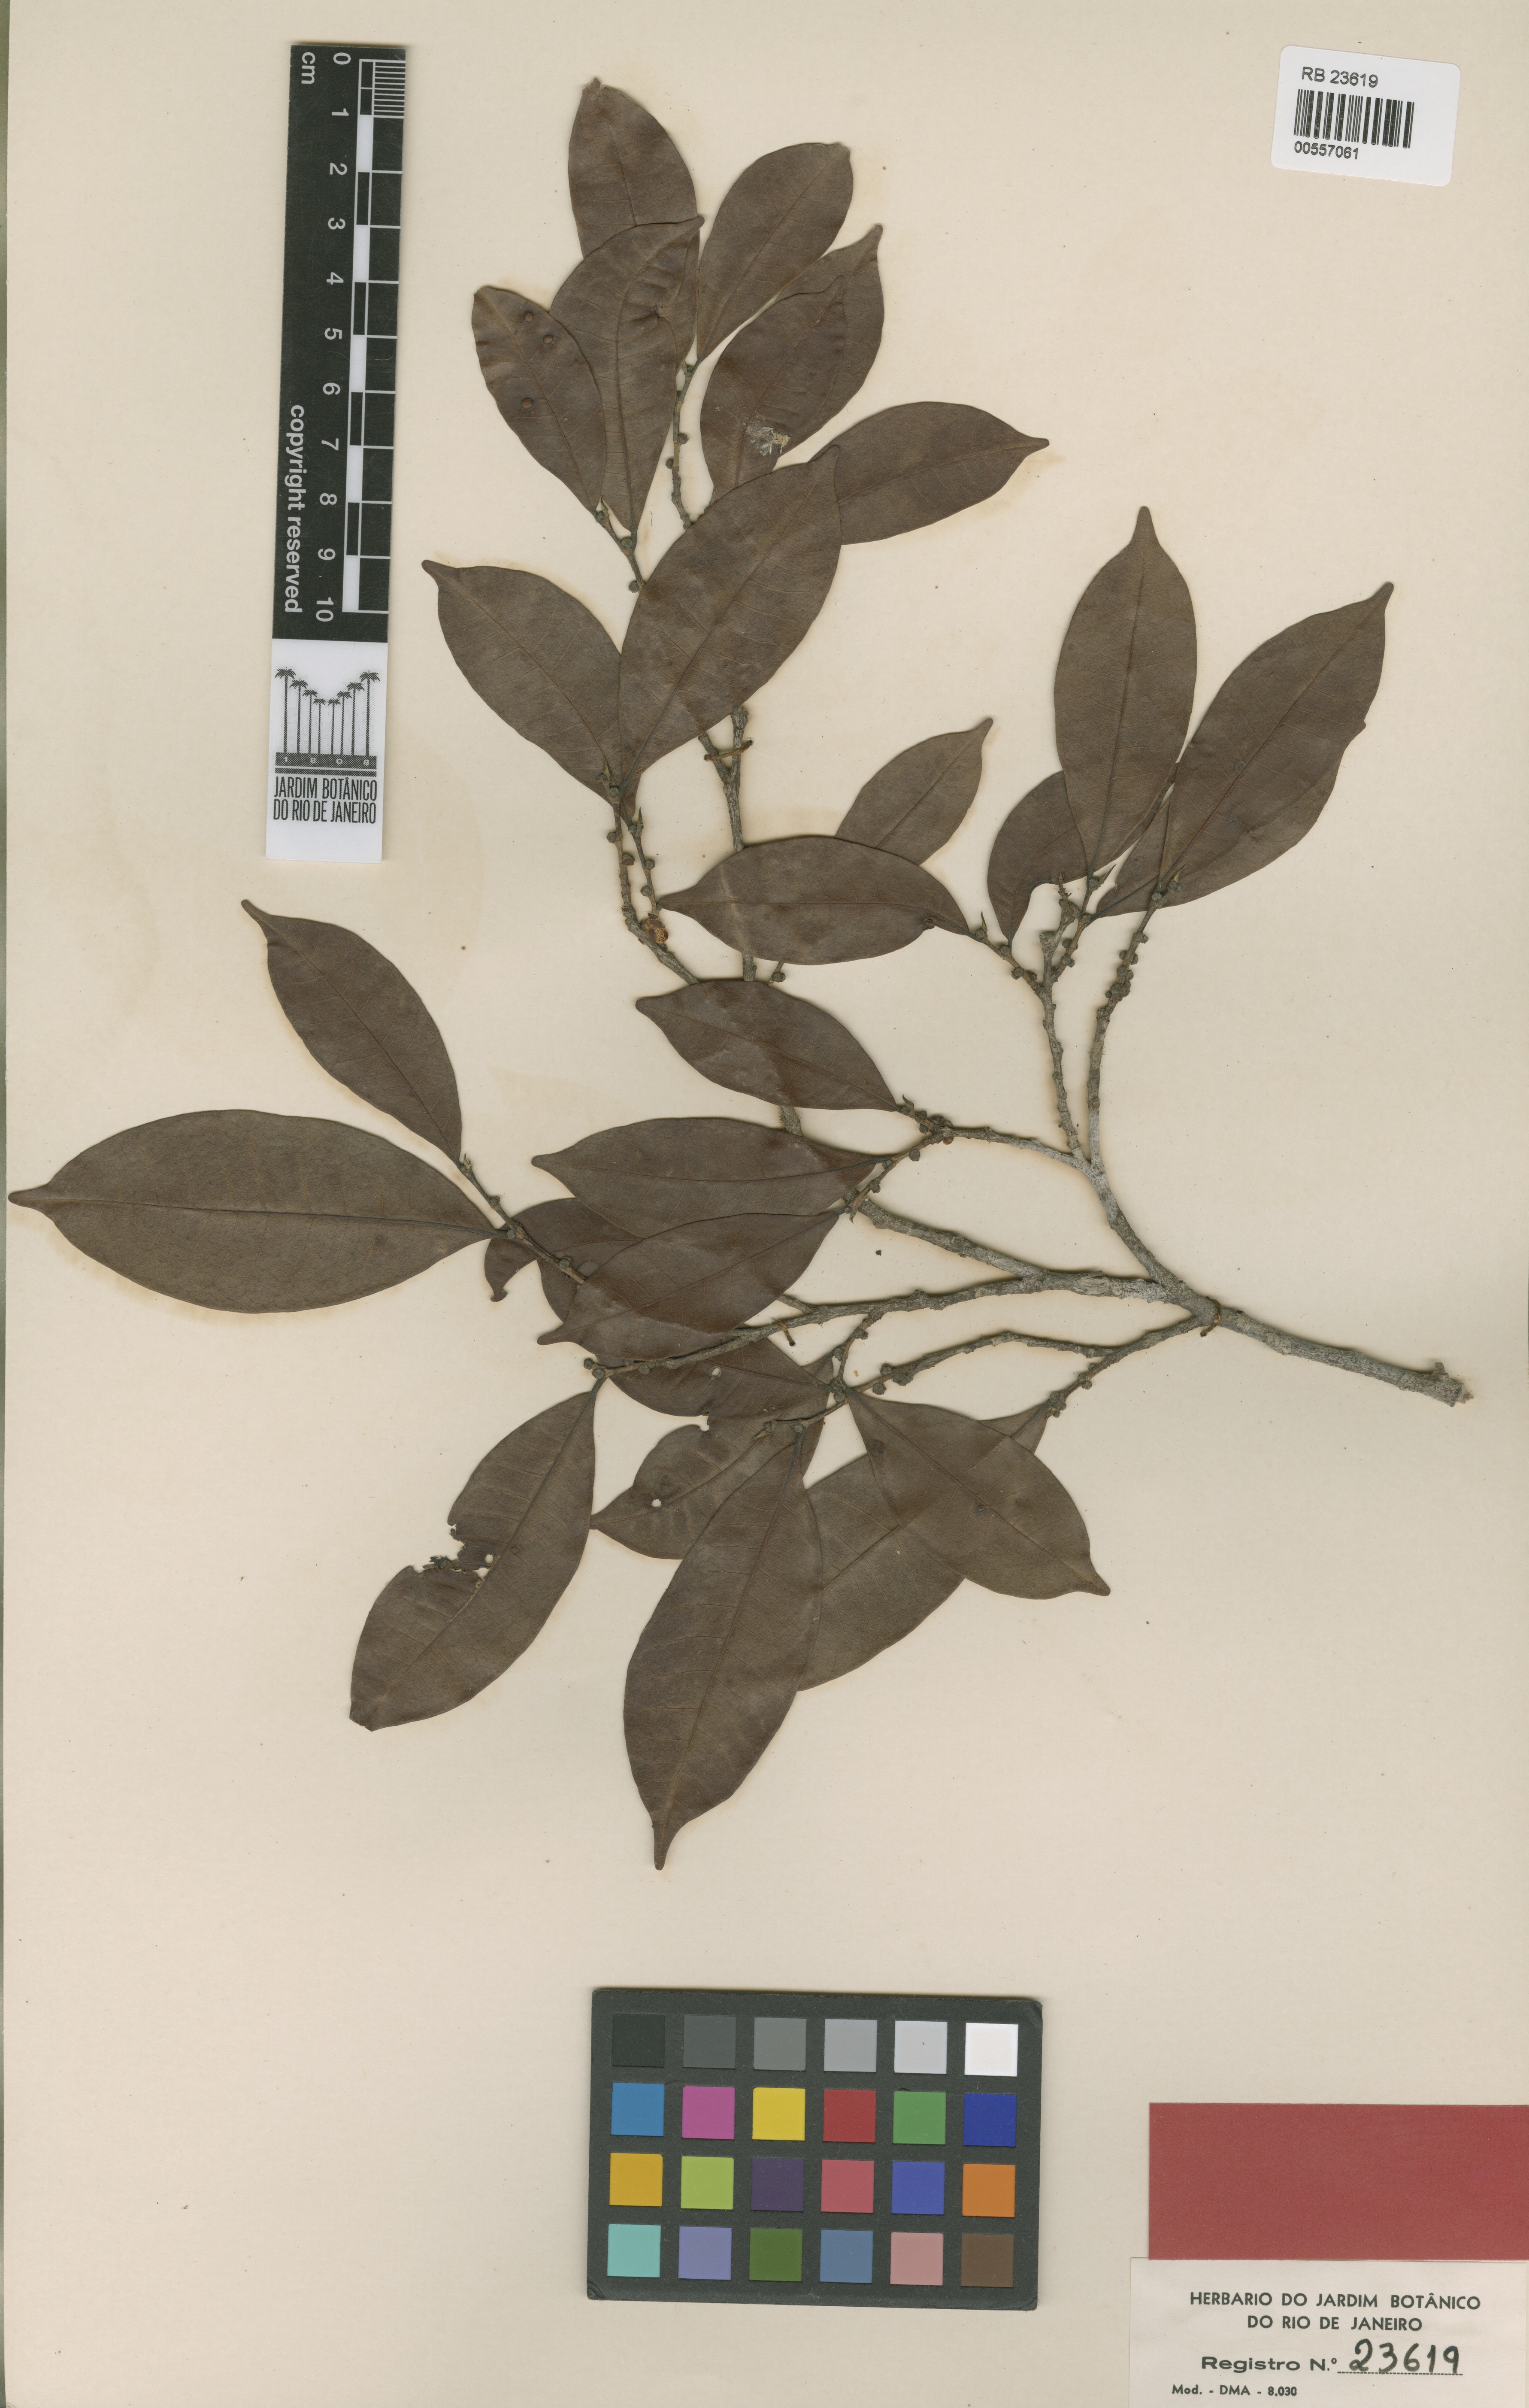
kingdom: Plantae
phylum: Tracheophyta
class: Magnoliopsida
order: Rosales
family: Moraceae
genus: Pseudolmedia
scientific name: Pseudolmedia laevigata
